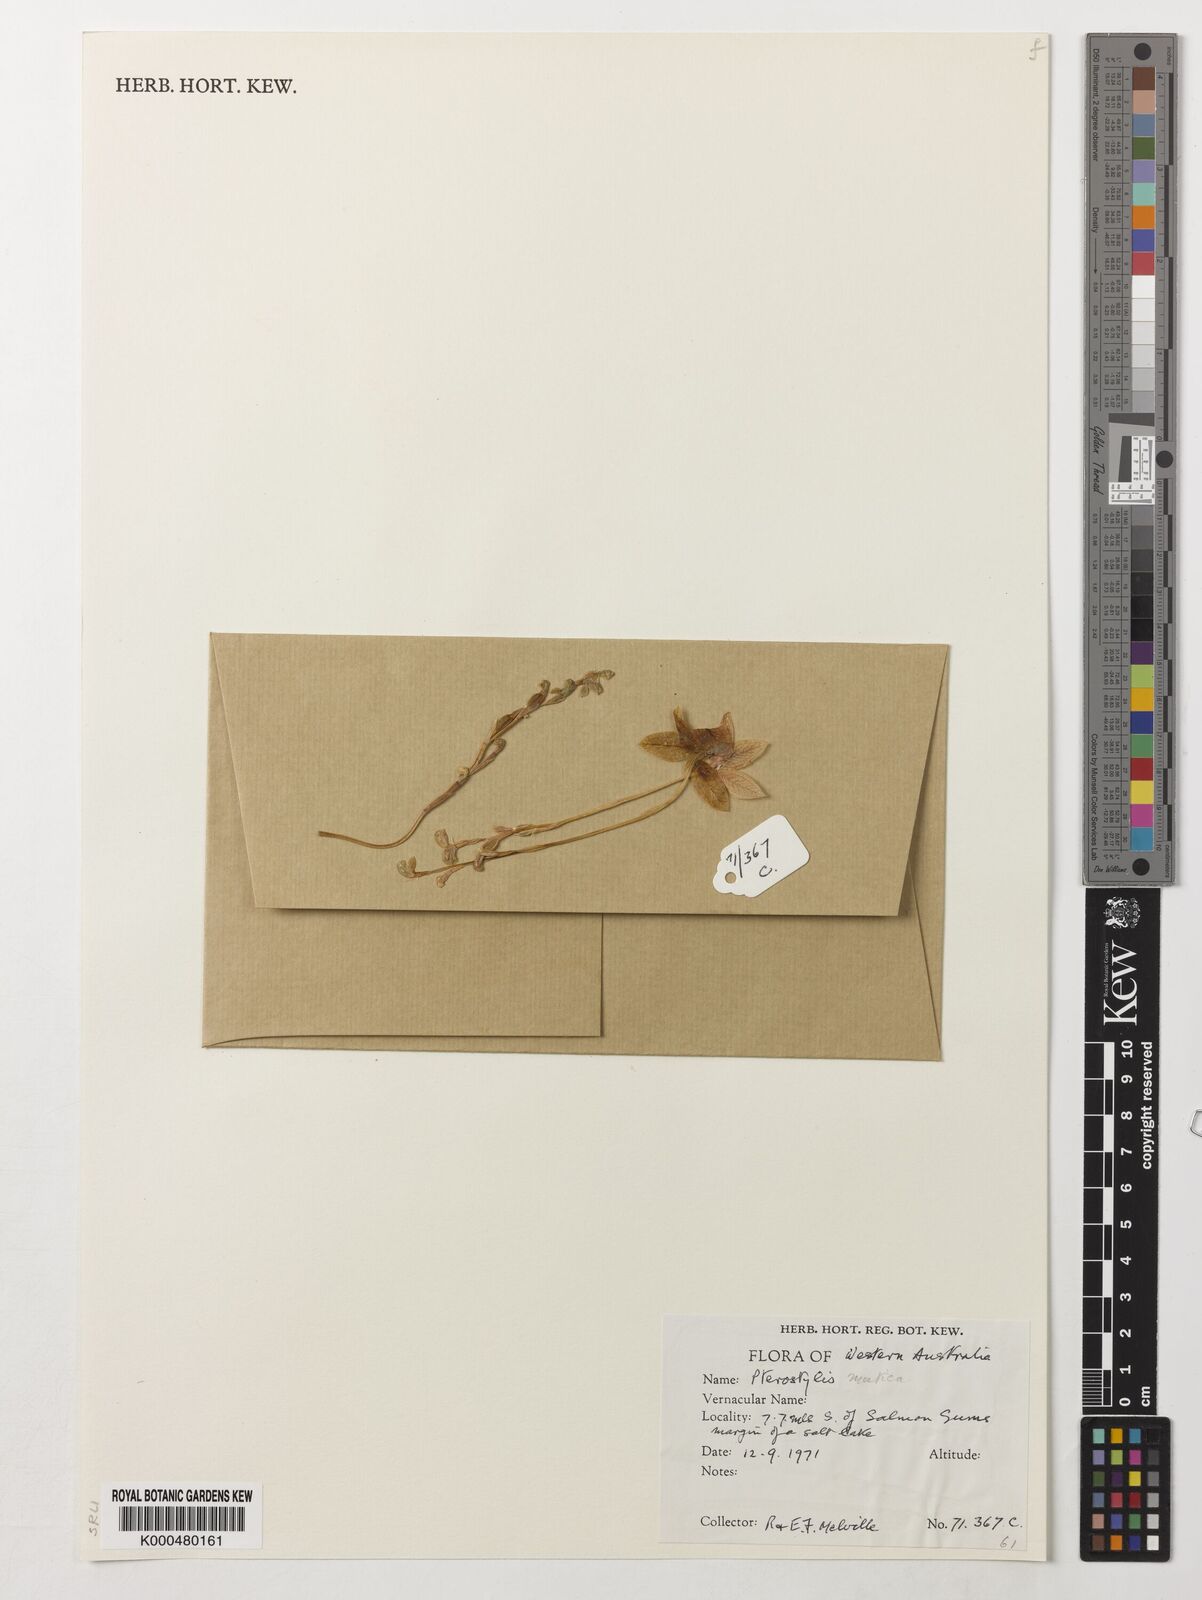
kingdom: Plantae
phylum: Tracheophyta
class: Liliopsida
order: Asparagales
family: Orchidaceae
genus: Pterostylis
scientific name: Pterostylis mutica
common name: Midget greenhood
